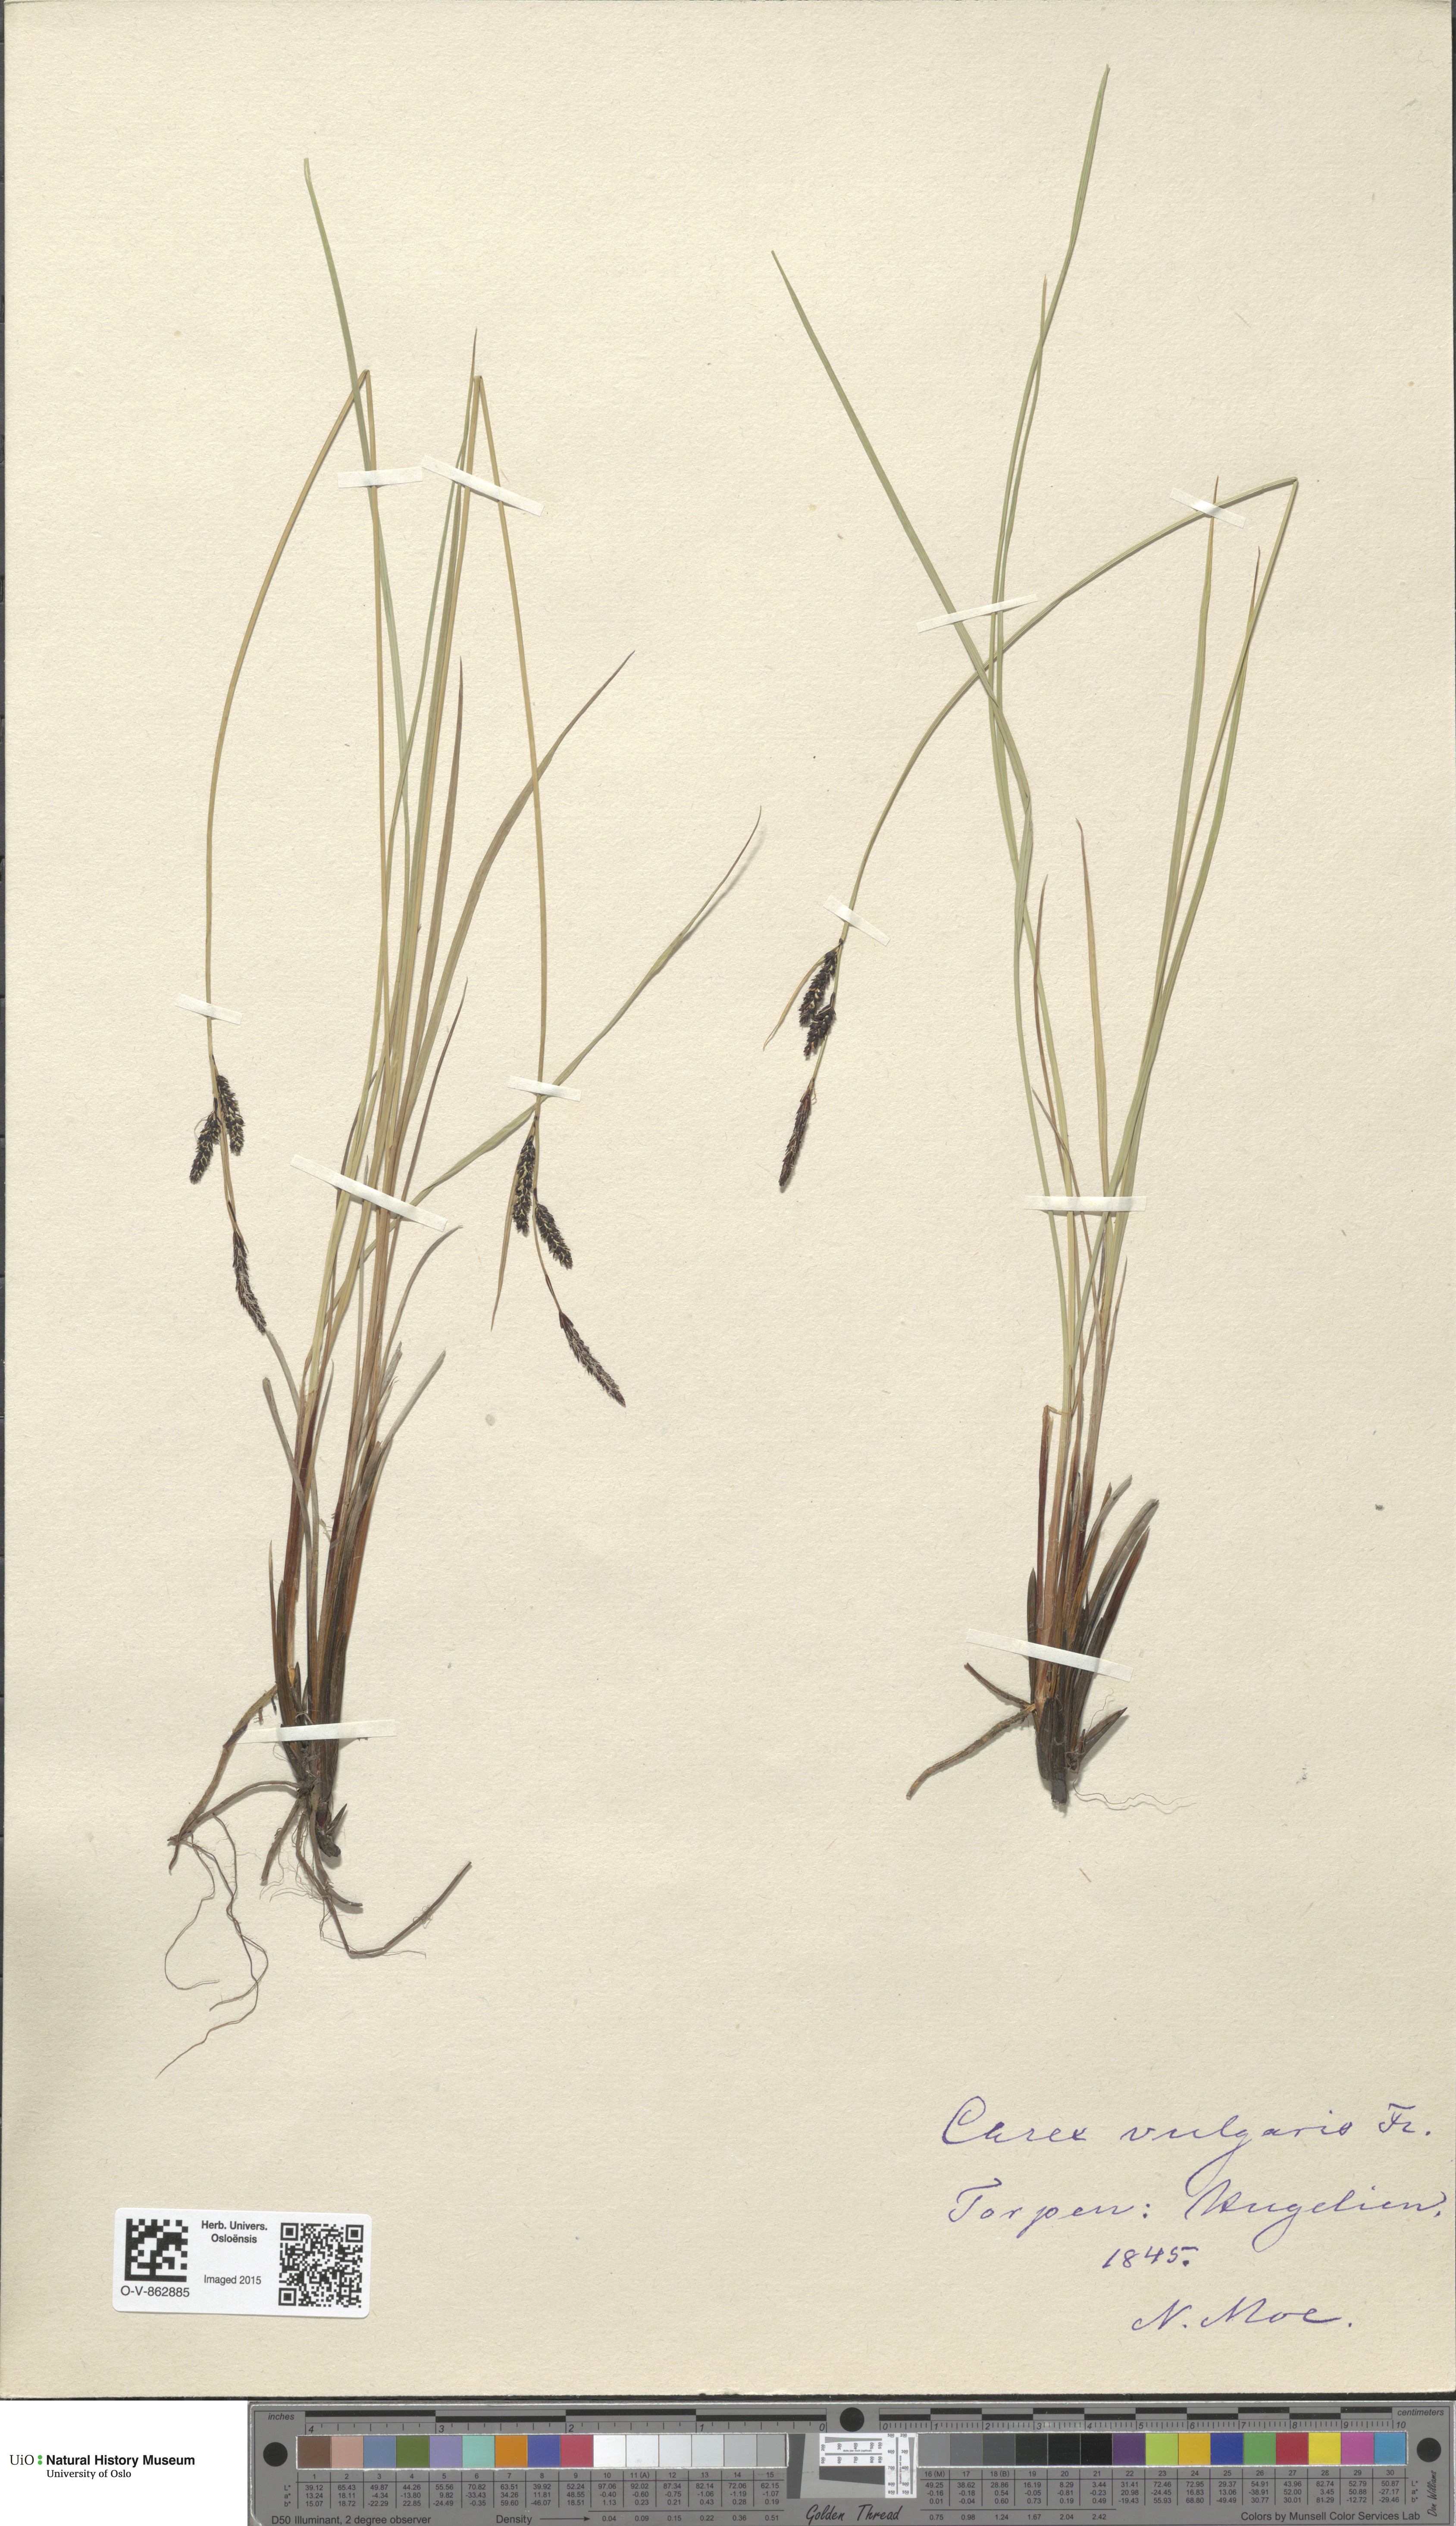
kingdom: Plantae
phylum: Tracheophyta
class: Liliopsida
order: Poales
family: Cyperaceae
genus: Carex
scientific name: Carex nigra
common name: Common sedge
